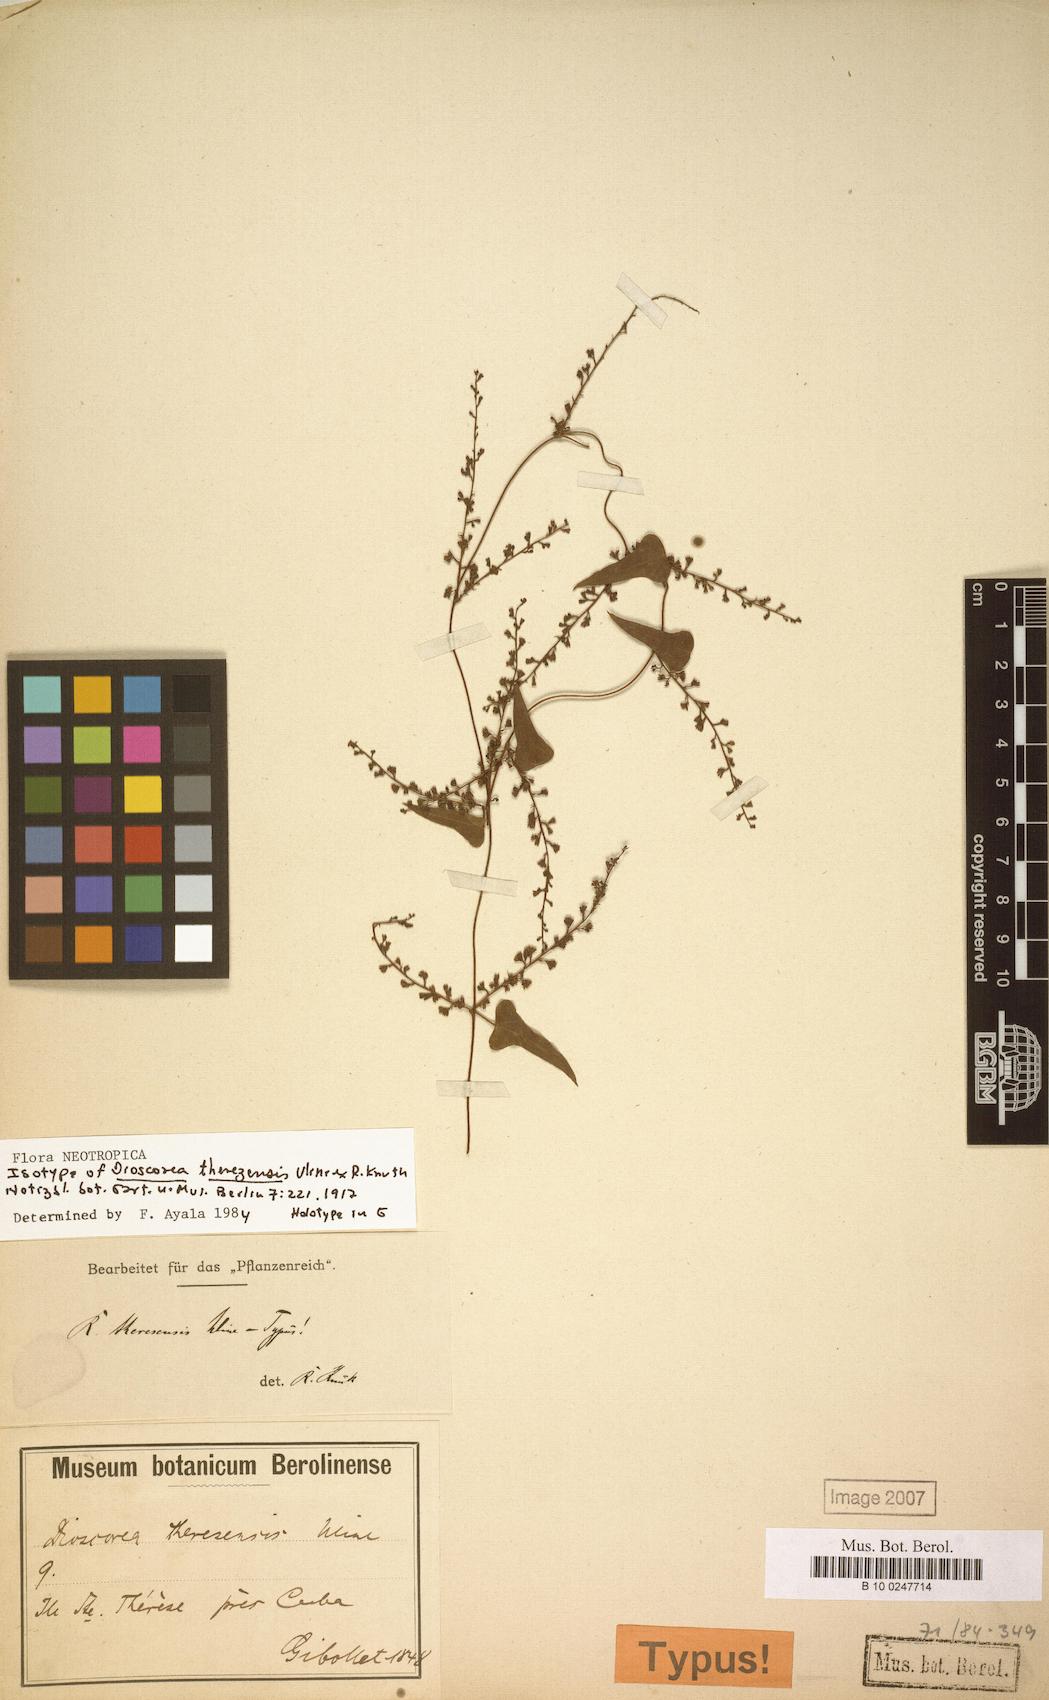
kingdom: Plantae
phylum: Tracheophyta
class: Liliopsida
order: Dioscoreales
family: Dioscoreaceae
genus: Dioscorea
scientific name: Dioscorea theresensis
